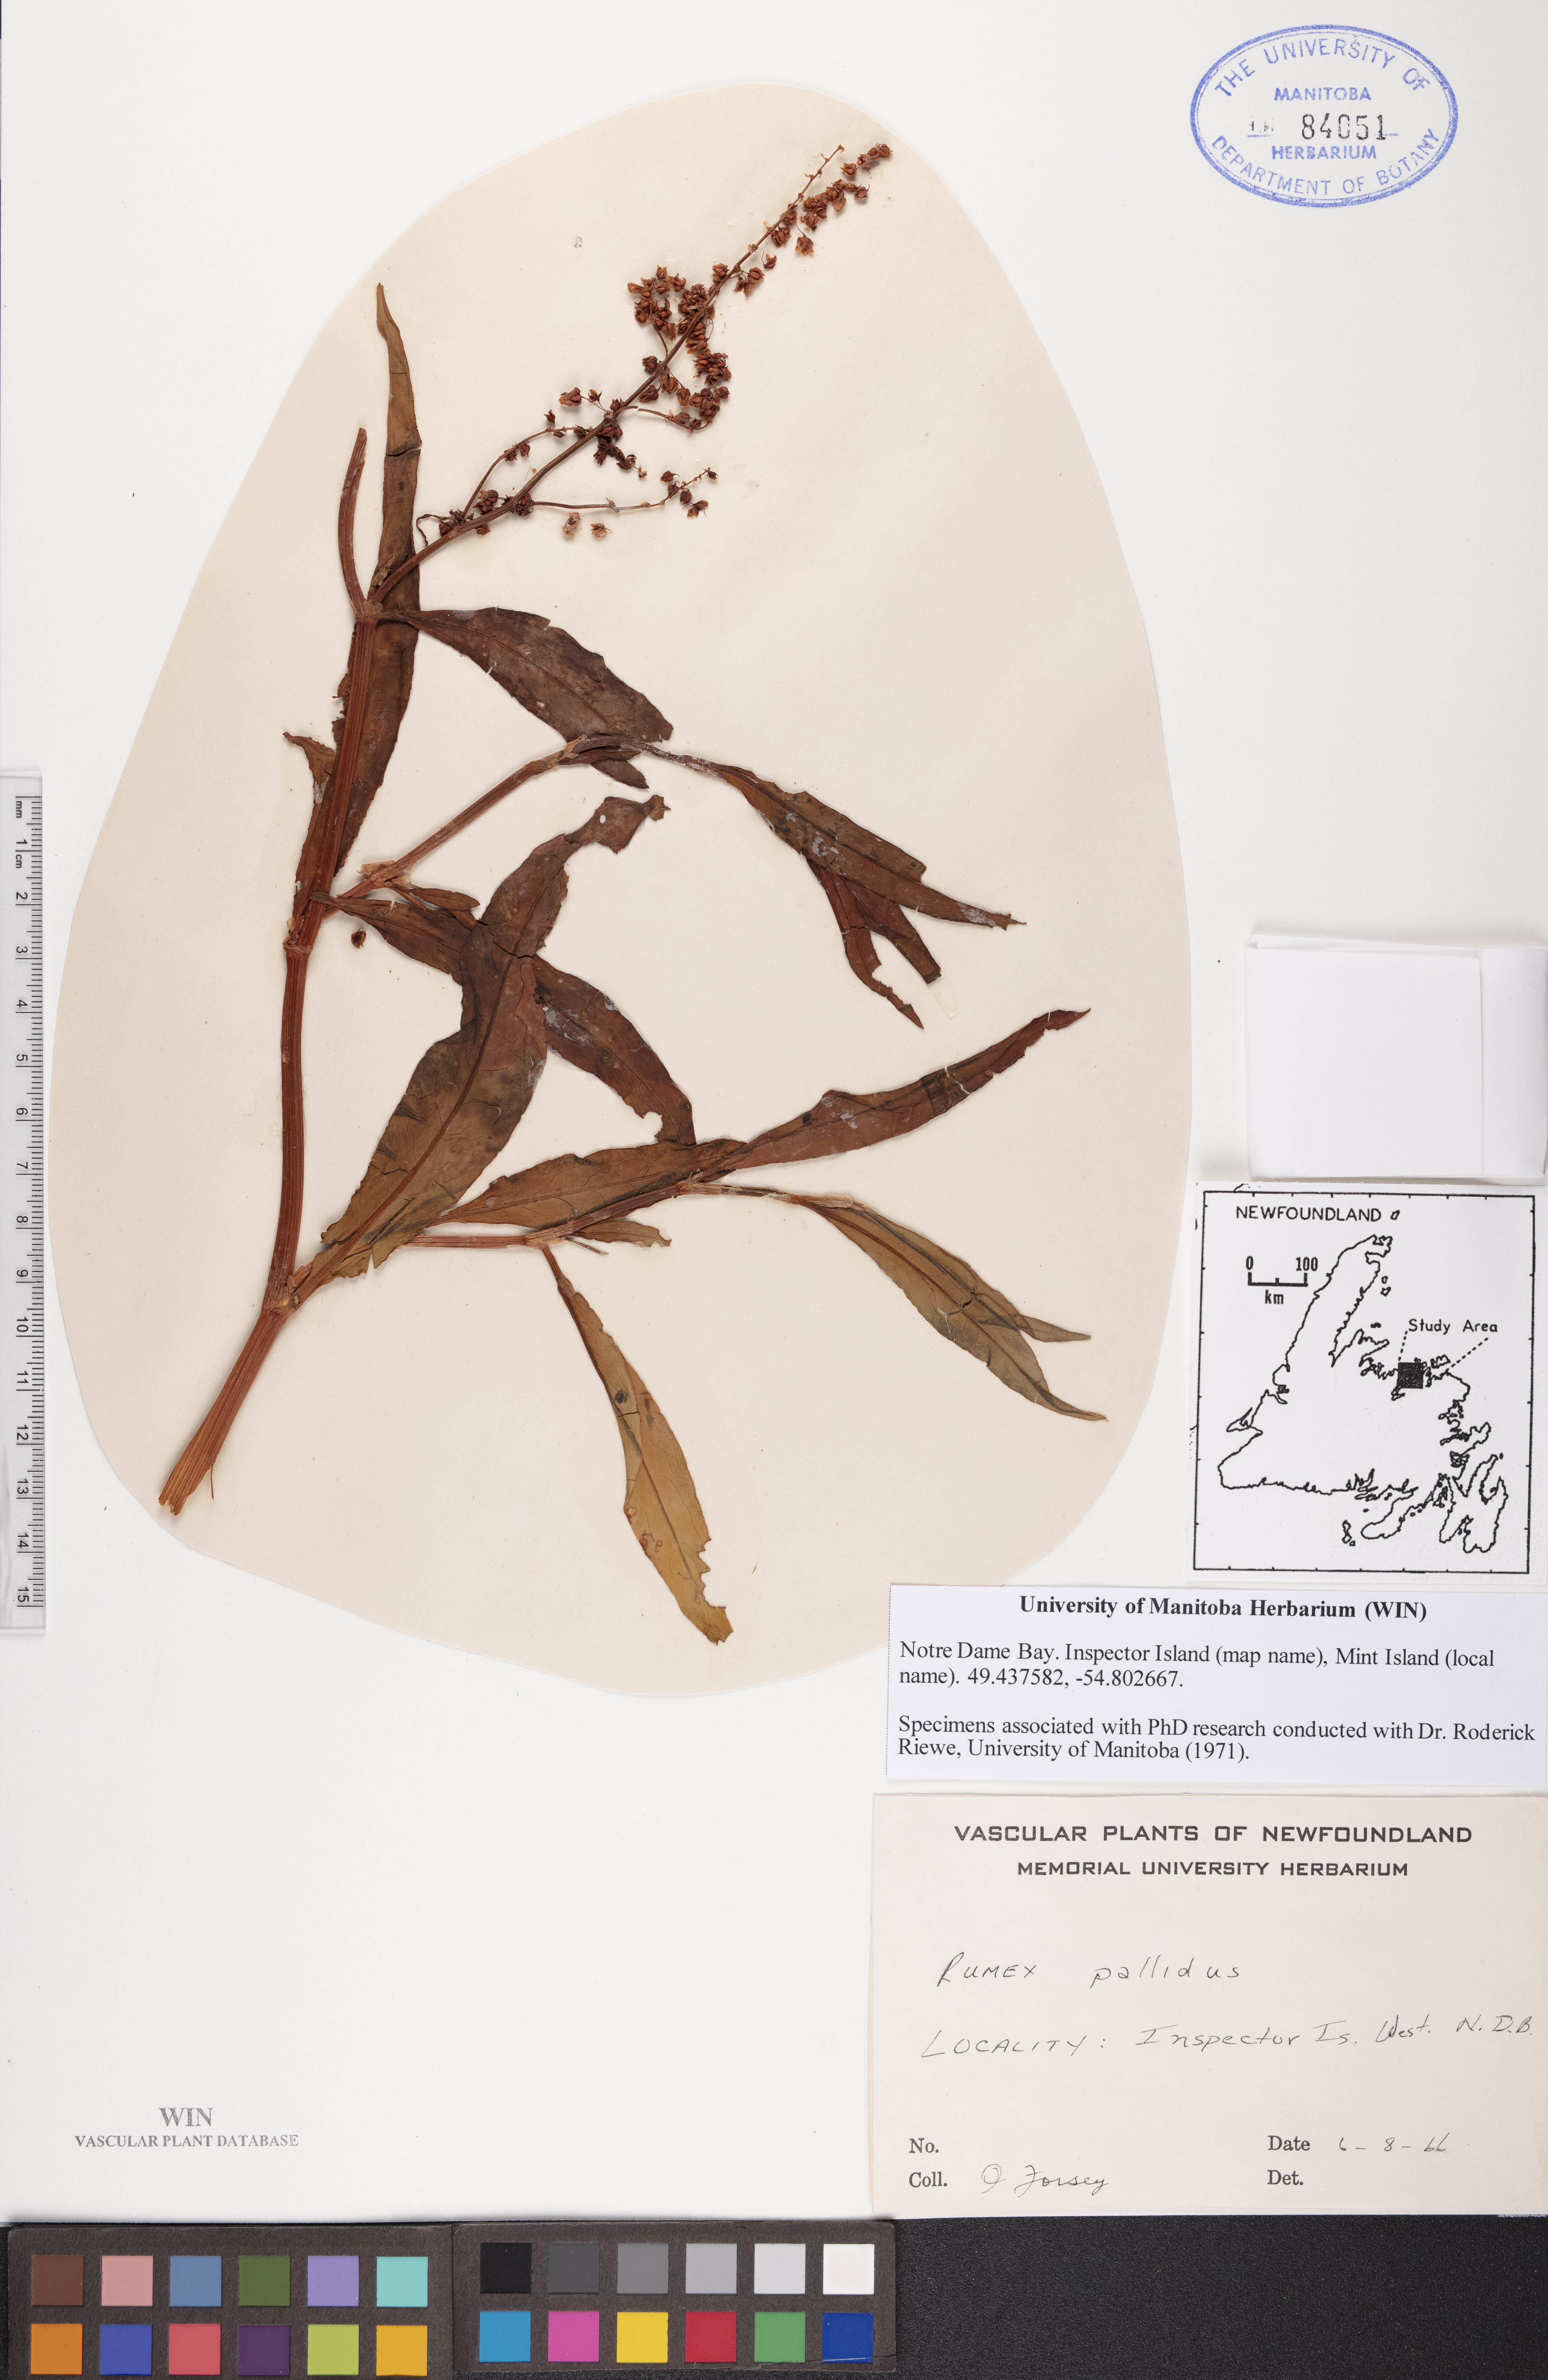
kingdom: Plantae
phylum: Tracheophyta
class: Magnoliopsida
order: Caryophyllales
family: Polygonaceae
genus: Rumex
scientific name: Rumex pallidus
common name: Large-tuberculed dock
